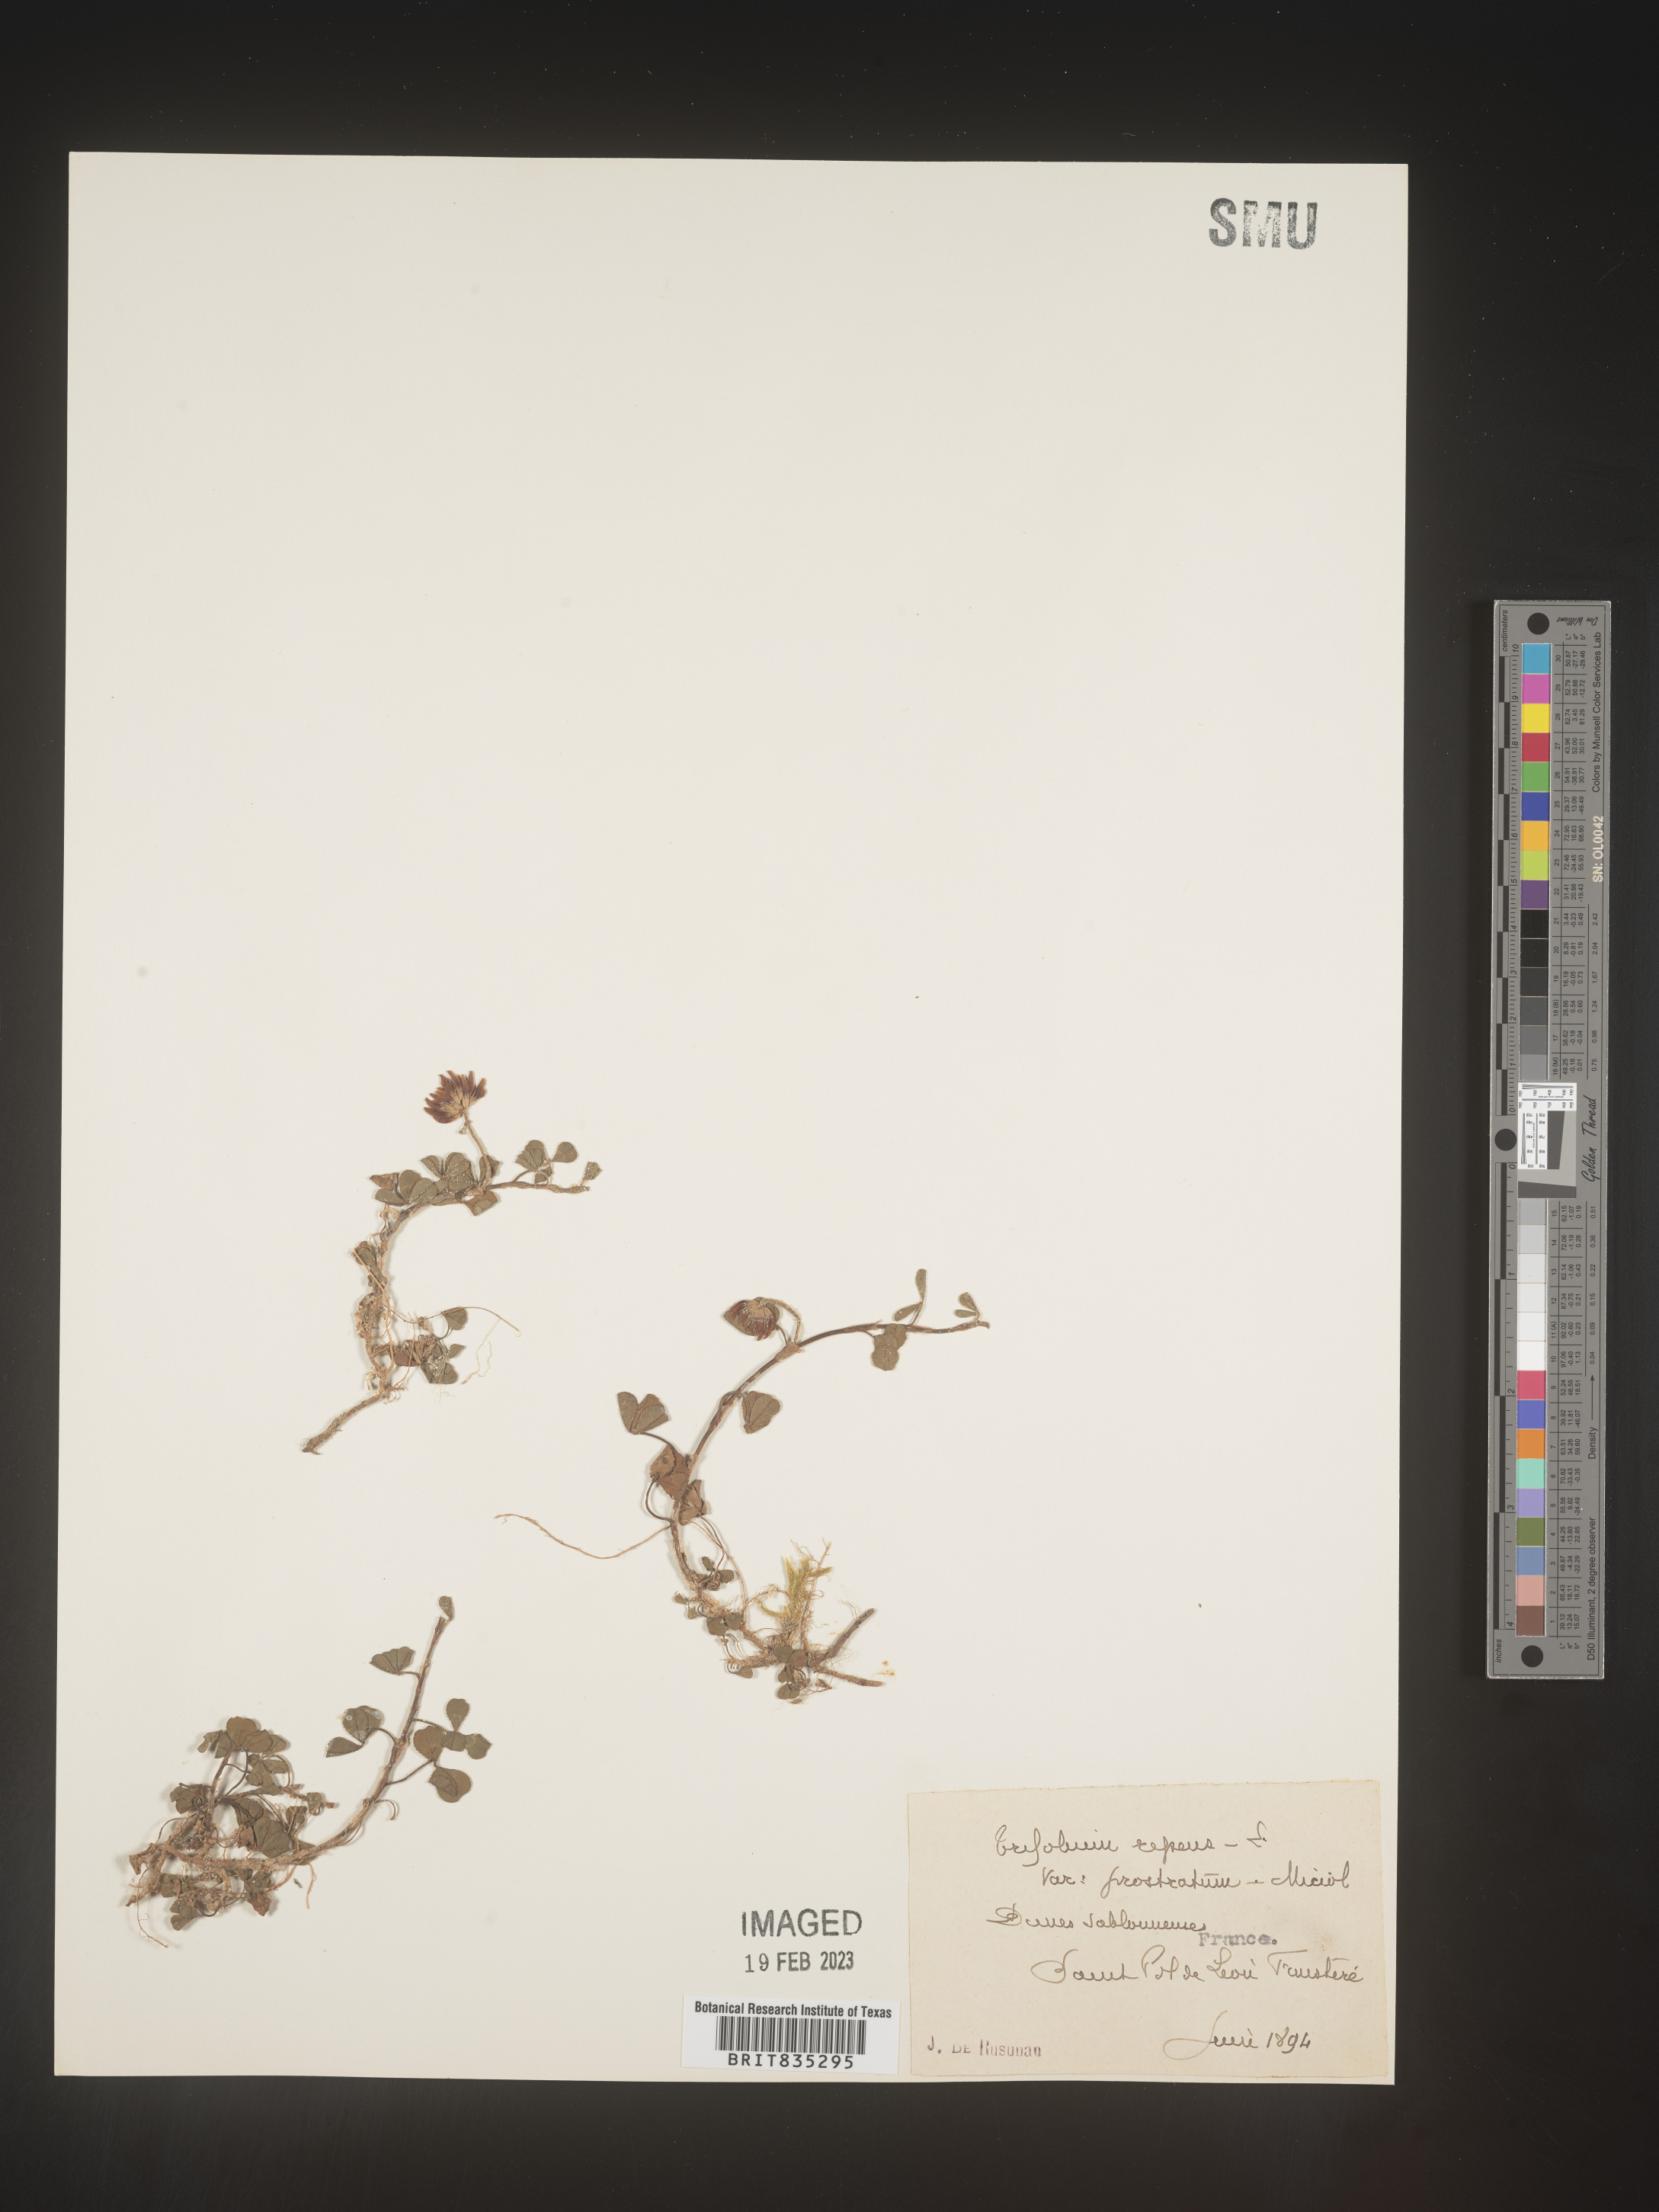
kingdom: Plantae
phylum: Tracheophyta
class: Magnoliopsida
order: Fabales
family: Fabaceae
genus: Trifolium
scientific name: Trifolium
